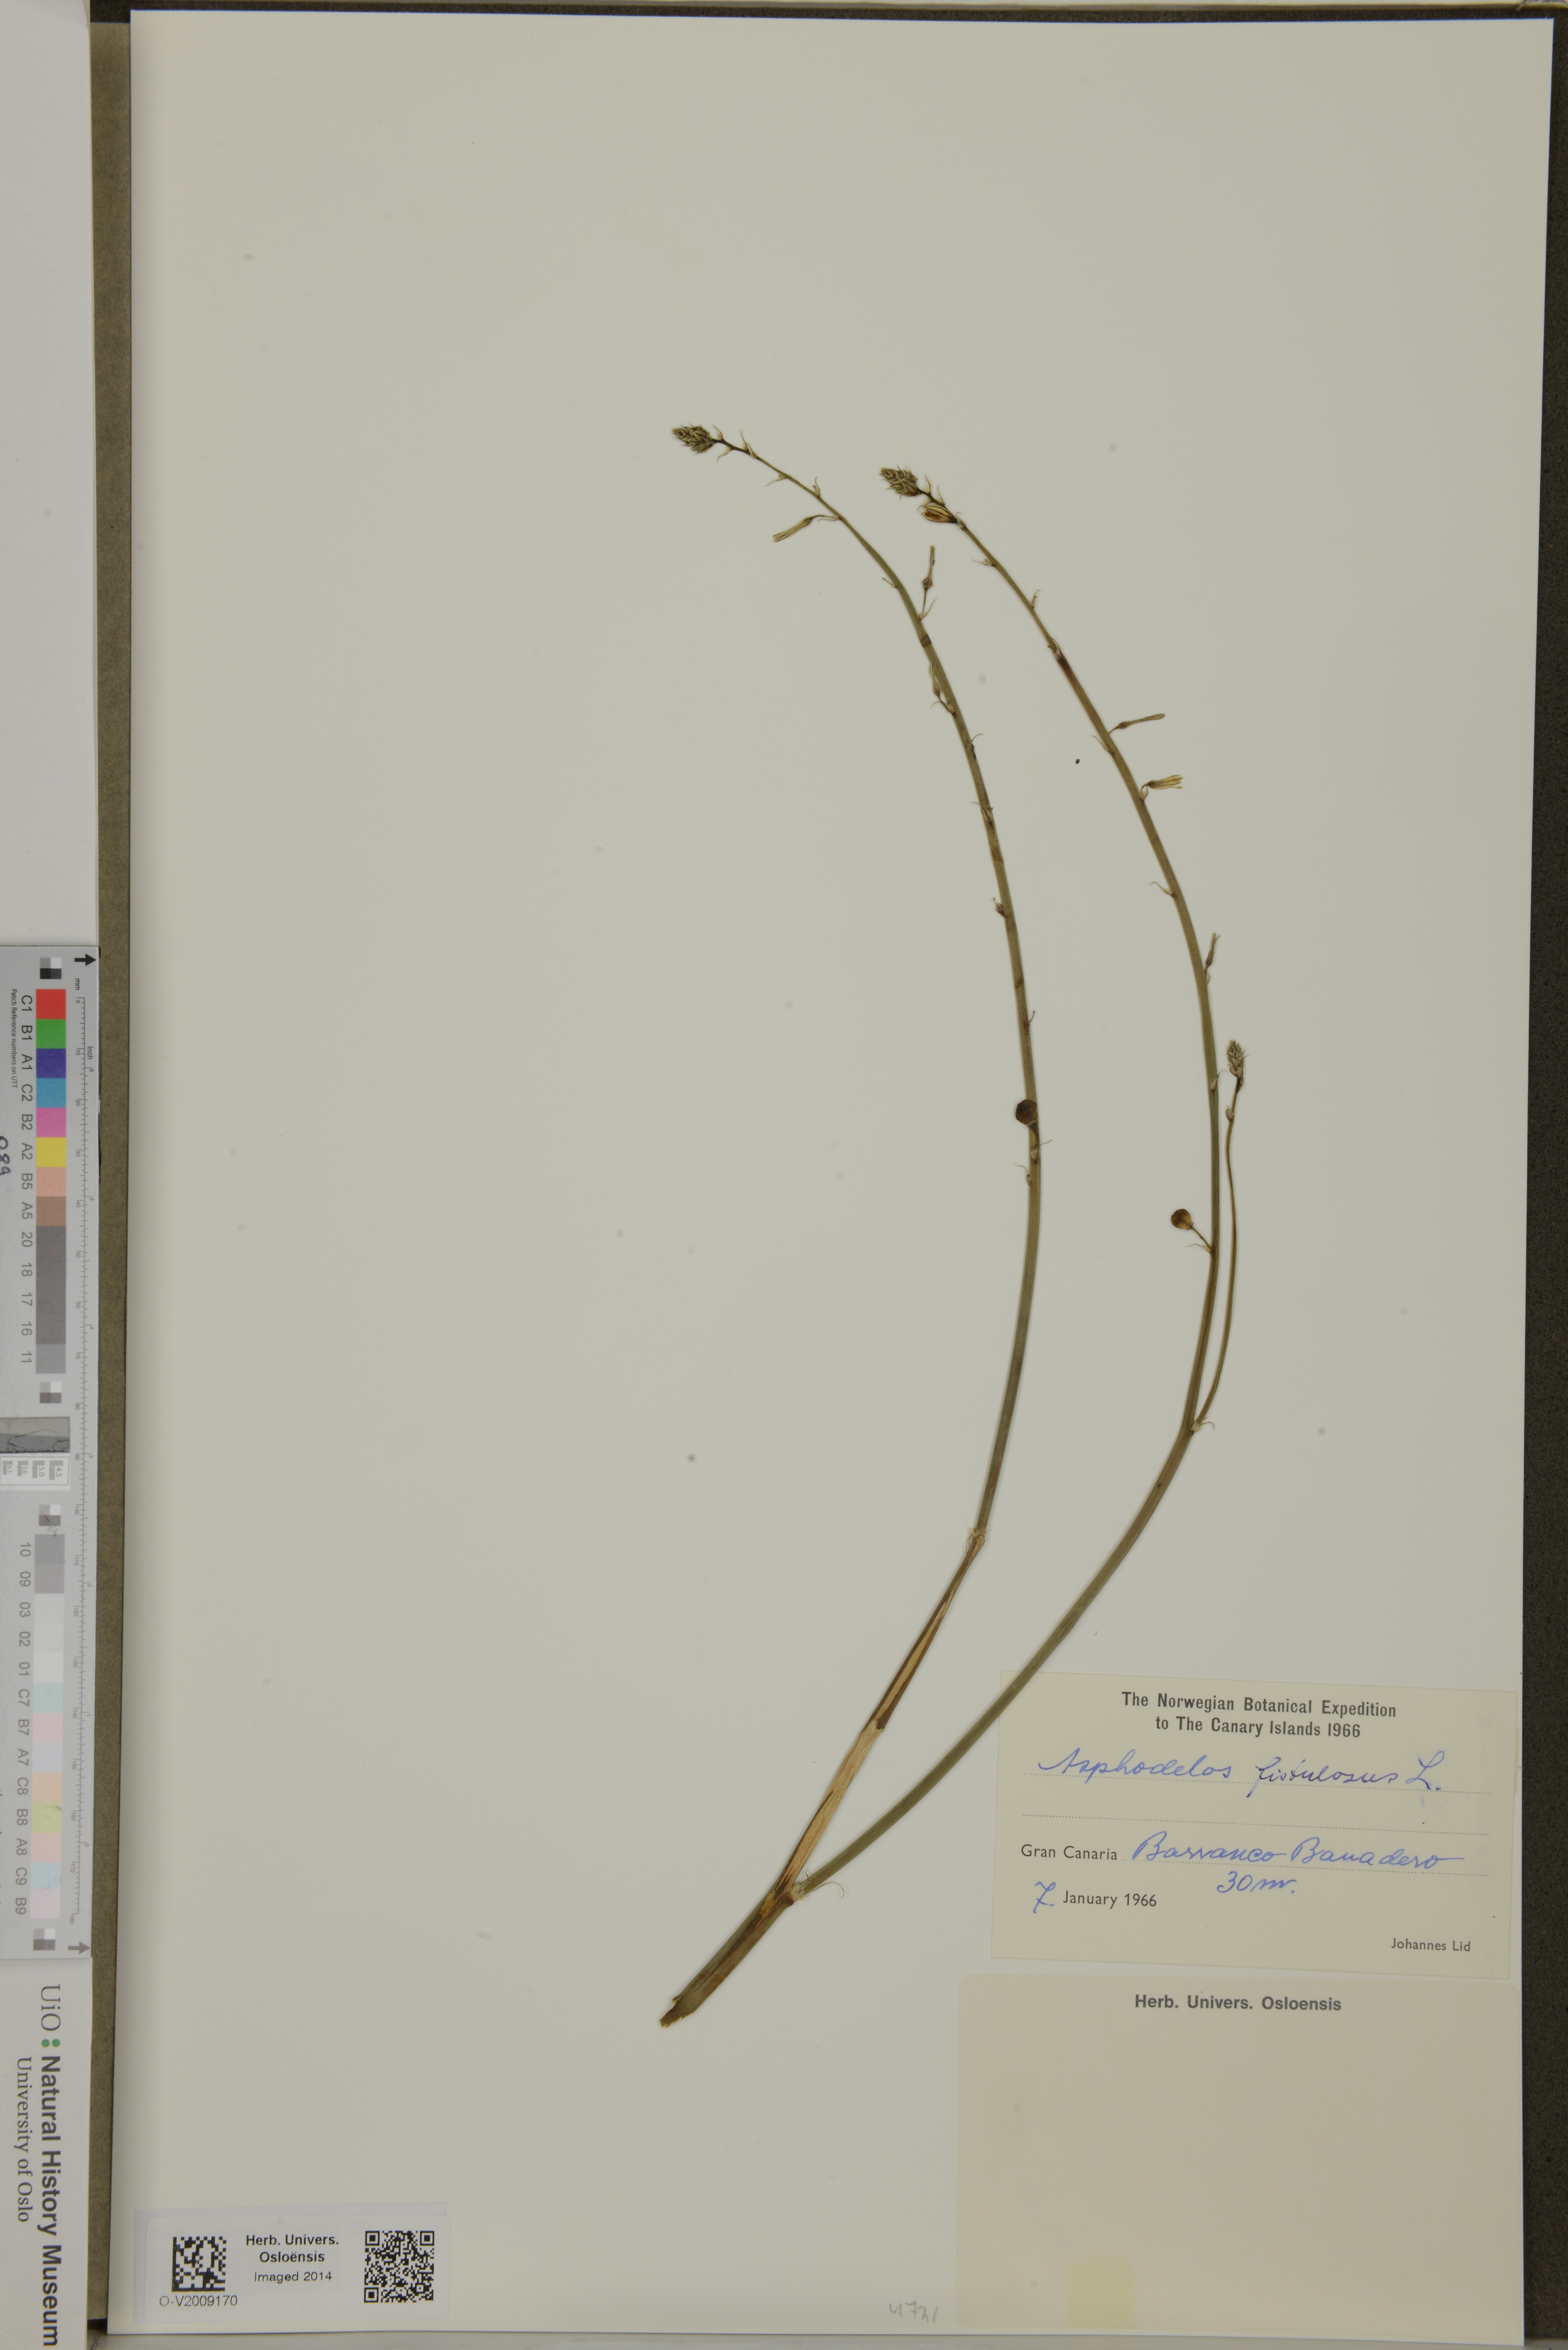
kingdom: Plantae
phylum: Tracheophyta
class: Liliopsida
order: Asparagales
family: Asphodelaceae
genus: Asphodelus
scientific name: Asphodelus fistulosus
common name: Onionweed
